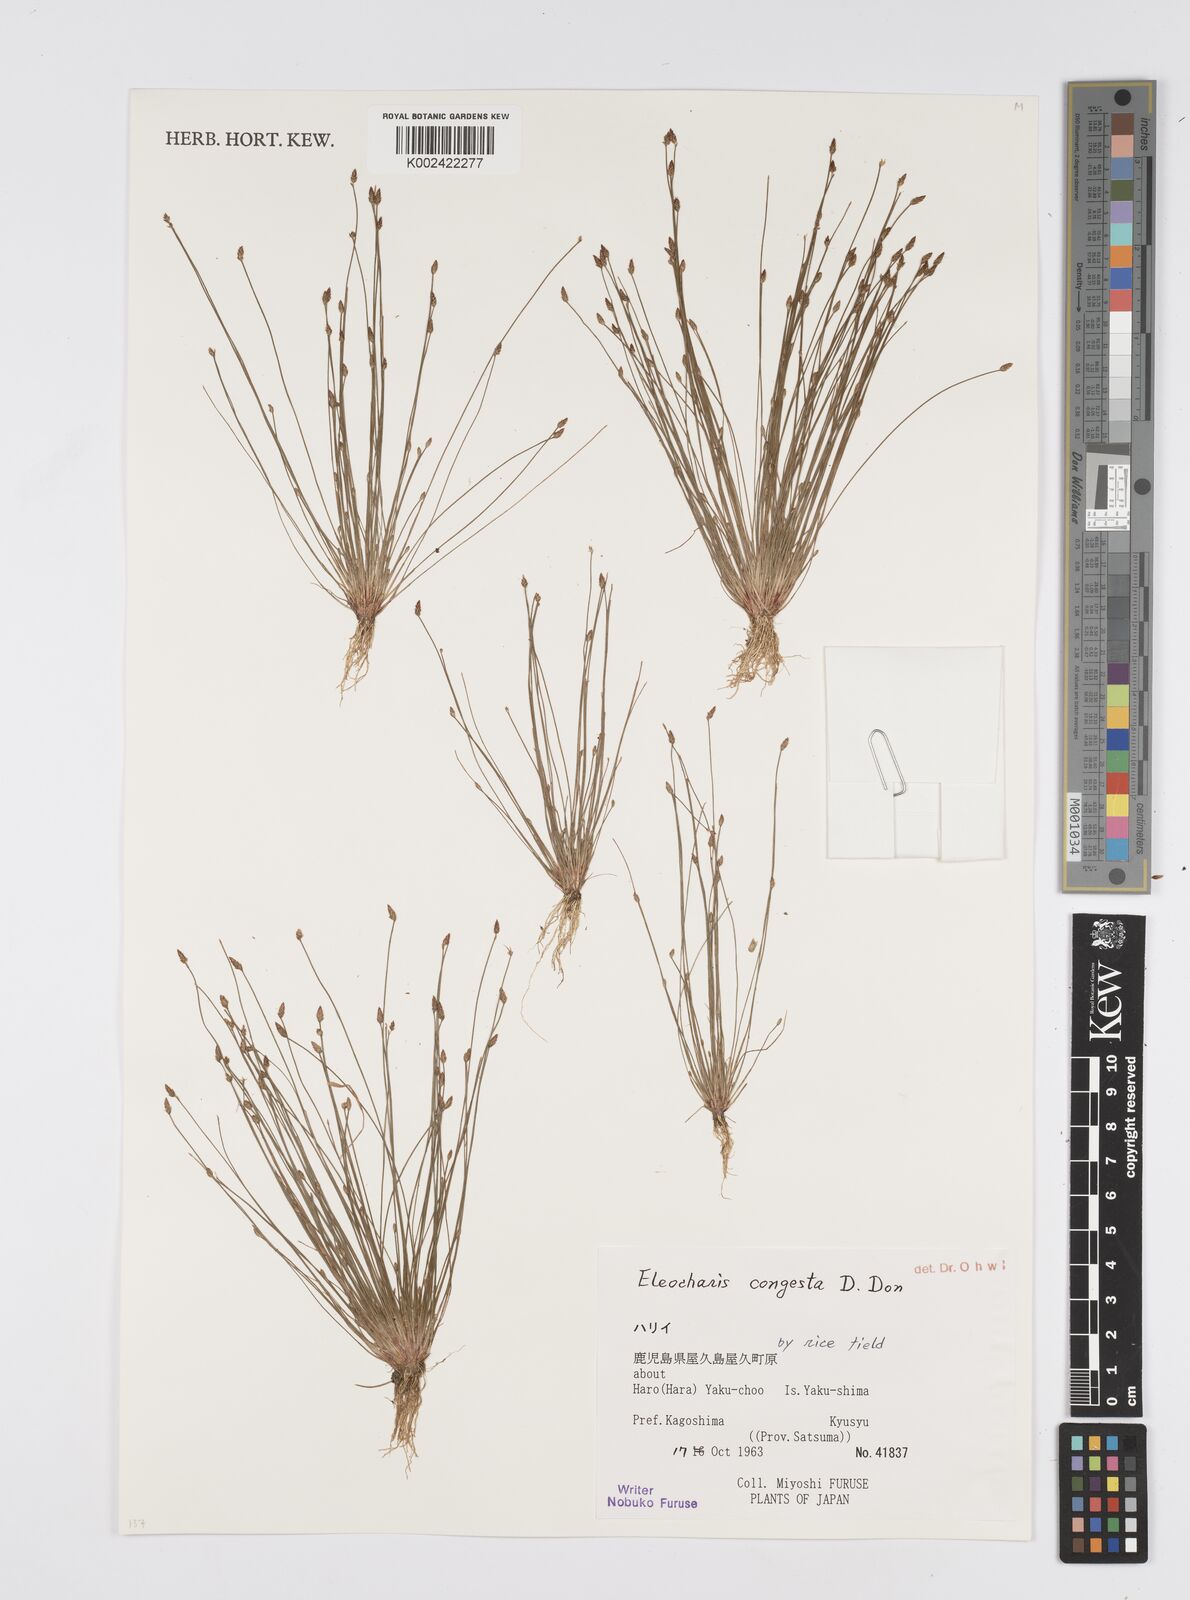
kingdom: Plantae
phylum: Tracheophyta
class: Liliopsida
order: Poales
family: Cyperaceae
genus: Eleocharis
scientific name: Eleocharis congesta
